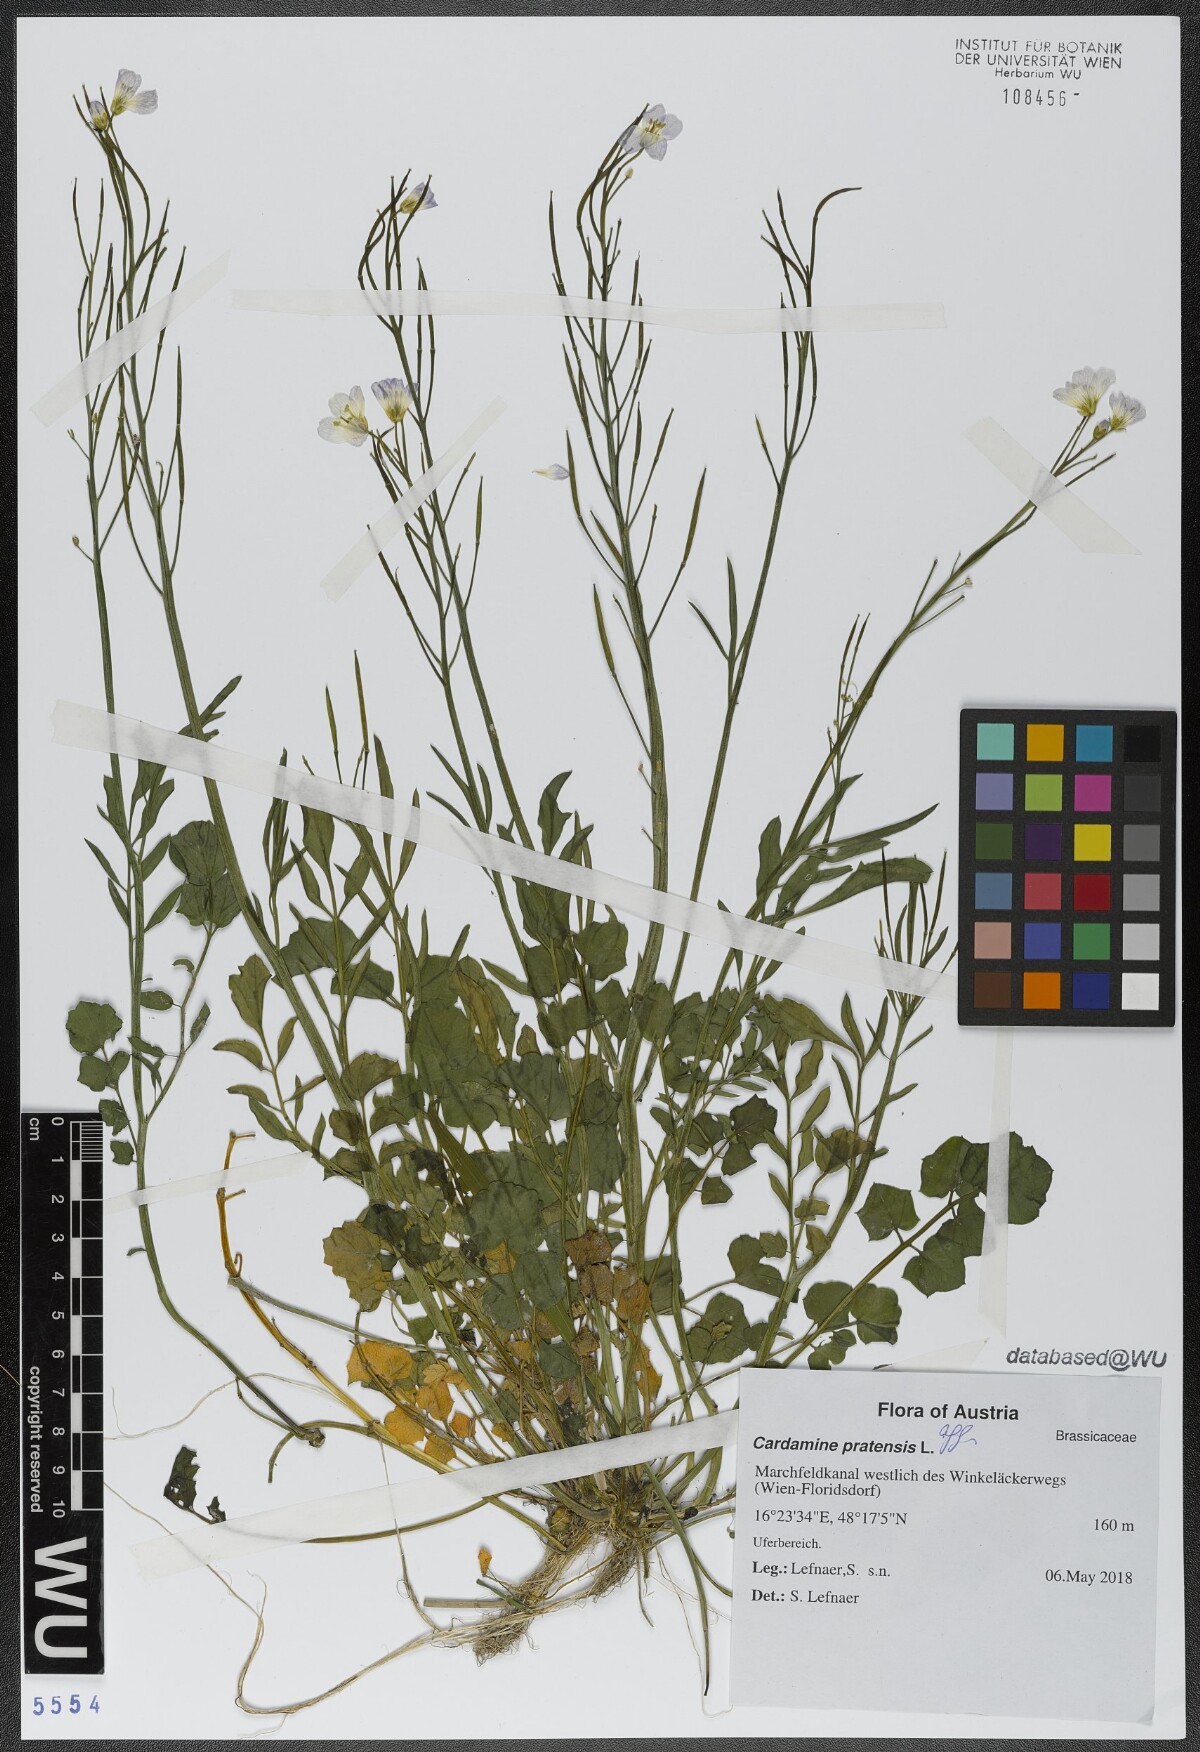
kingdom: Plantae
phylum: Tracheophyta
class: Magnoliopsida
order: Brassicales
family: Brassicaceae
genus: Cardamine
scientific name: Cardamine pratensis
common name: Cuckoo flower
